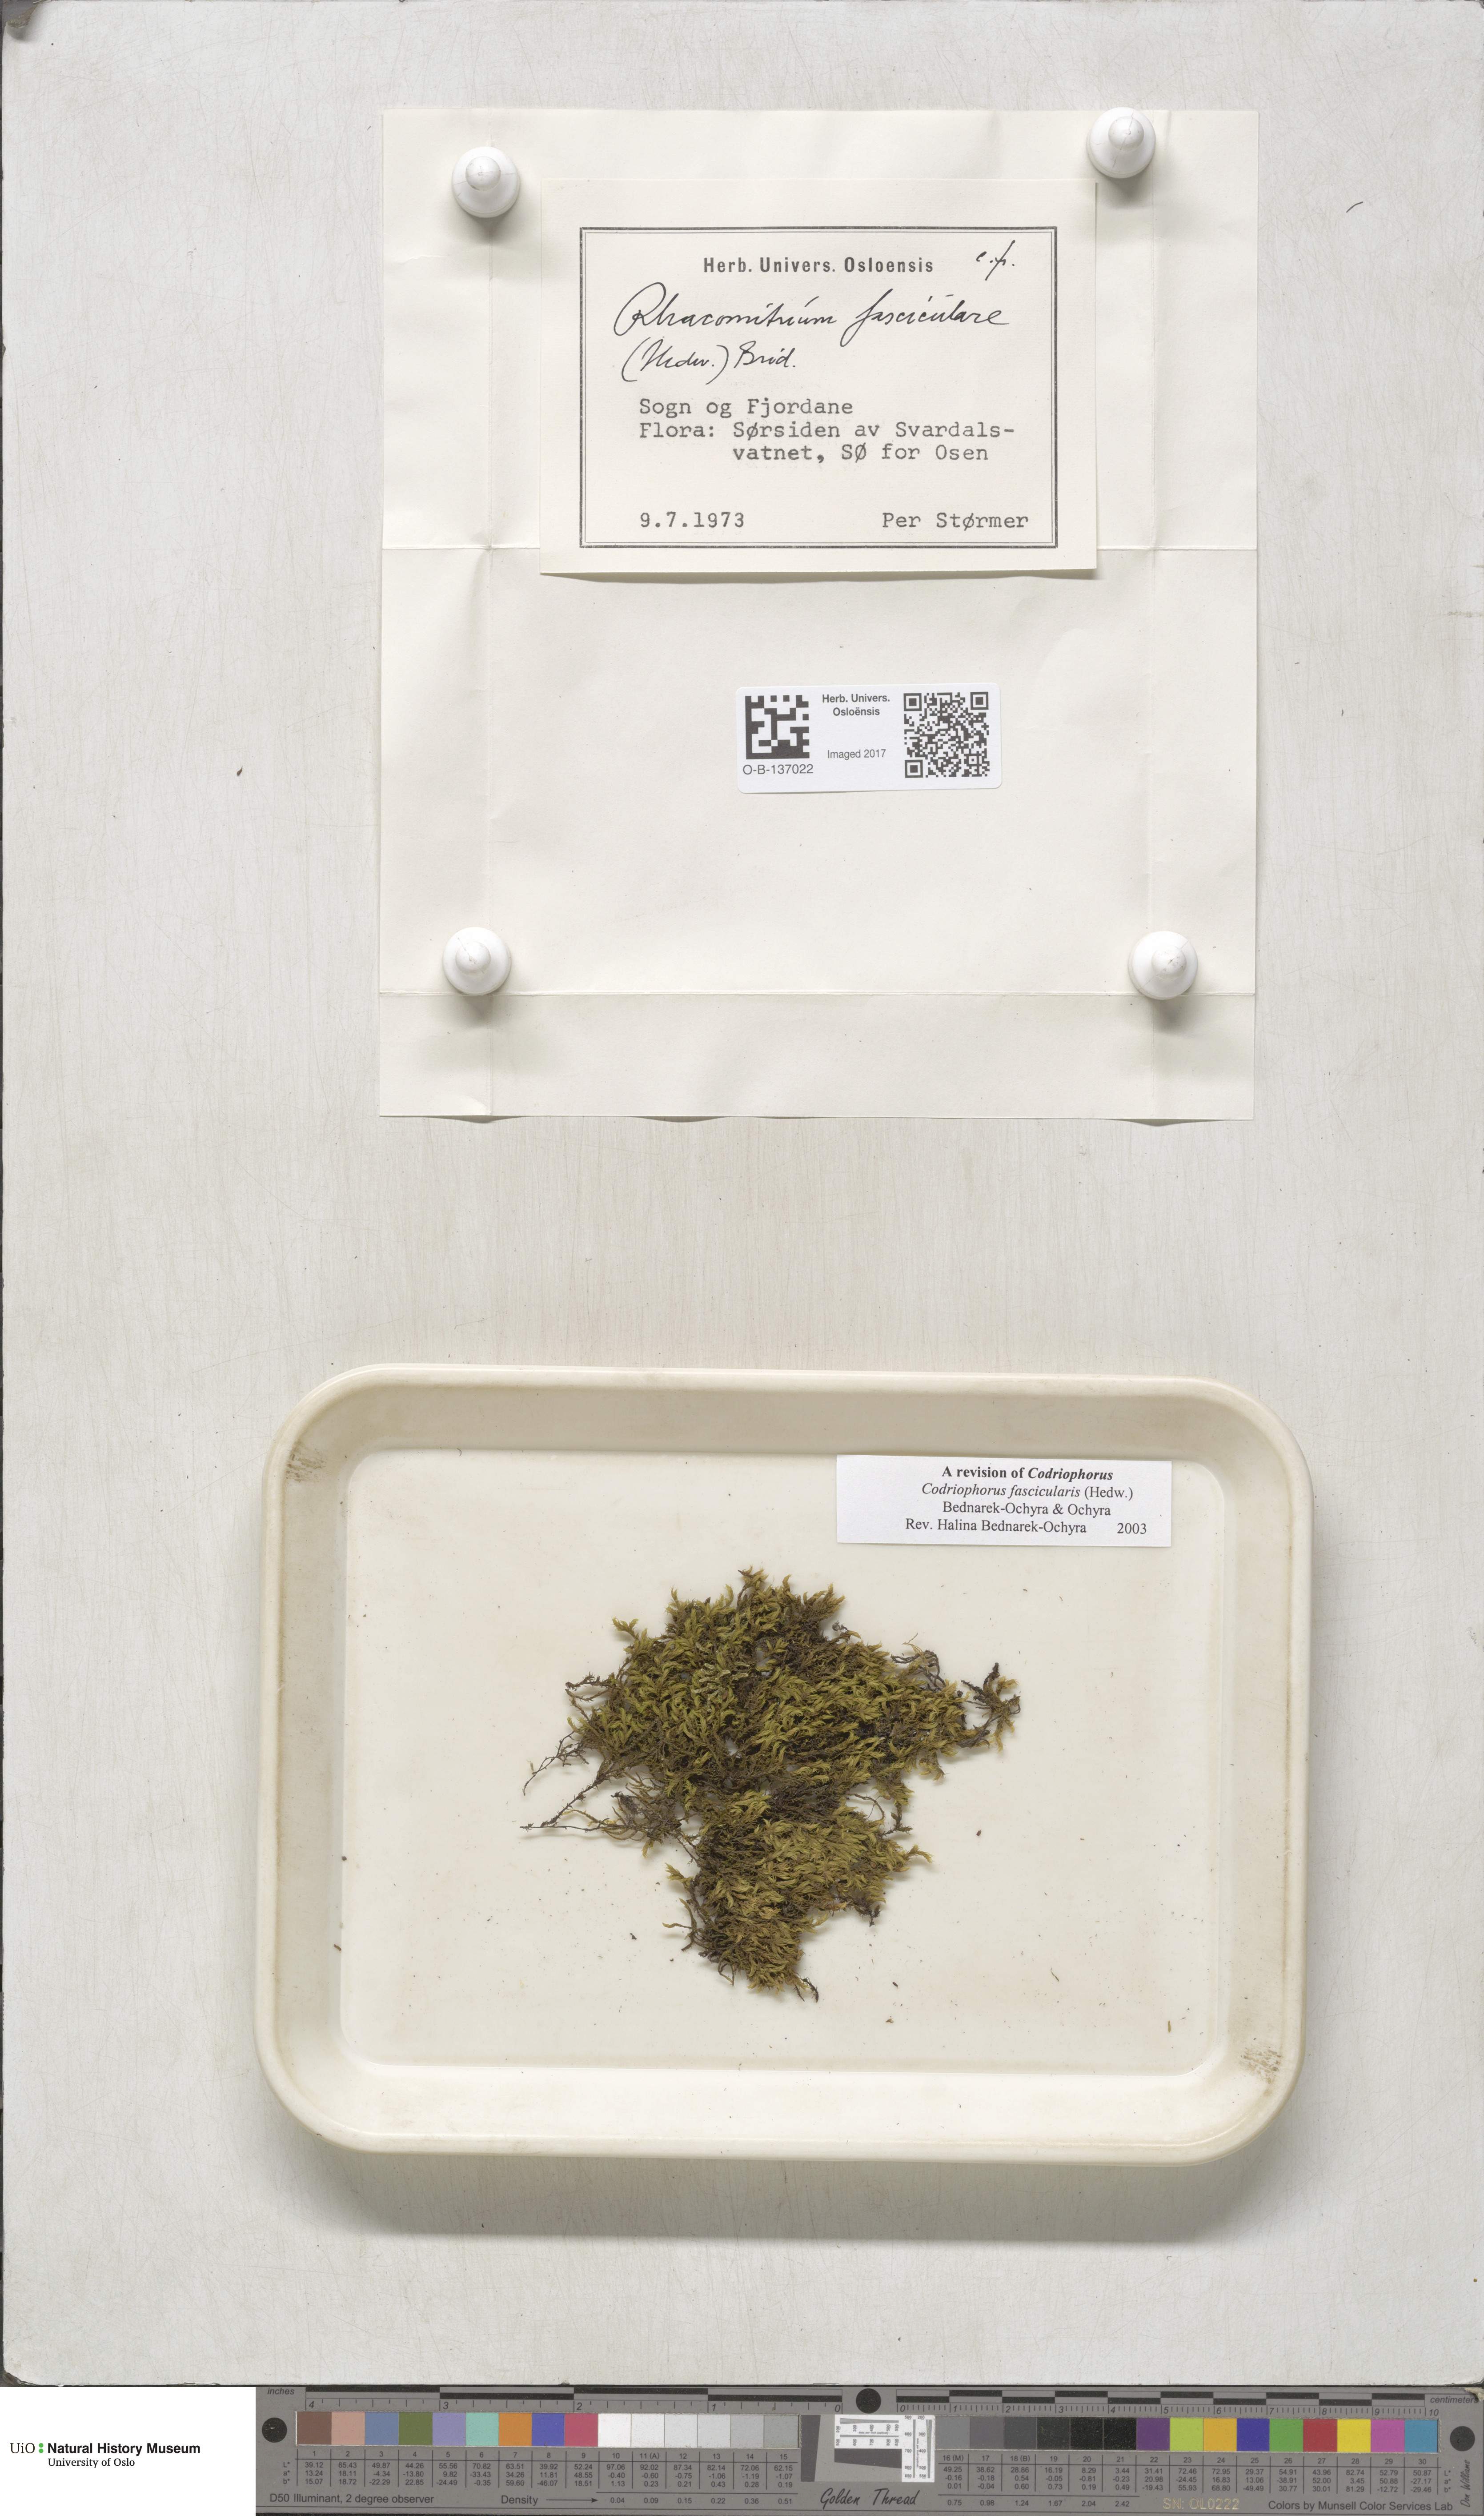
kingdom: Plantae
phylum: Bryophyta
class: Bryopsida
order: Grimmiales
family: Grimmiaceae
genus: Dilutineuron
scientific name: Dilutineuron fasciculare
